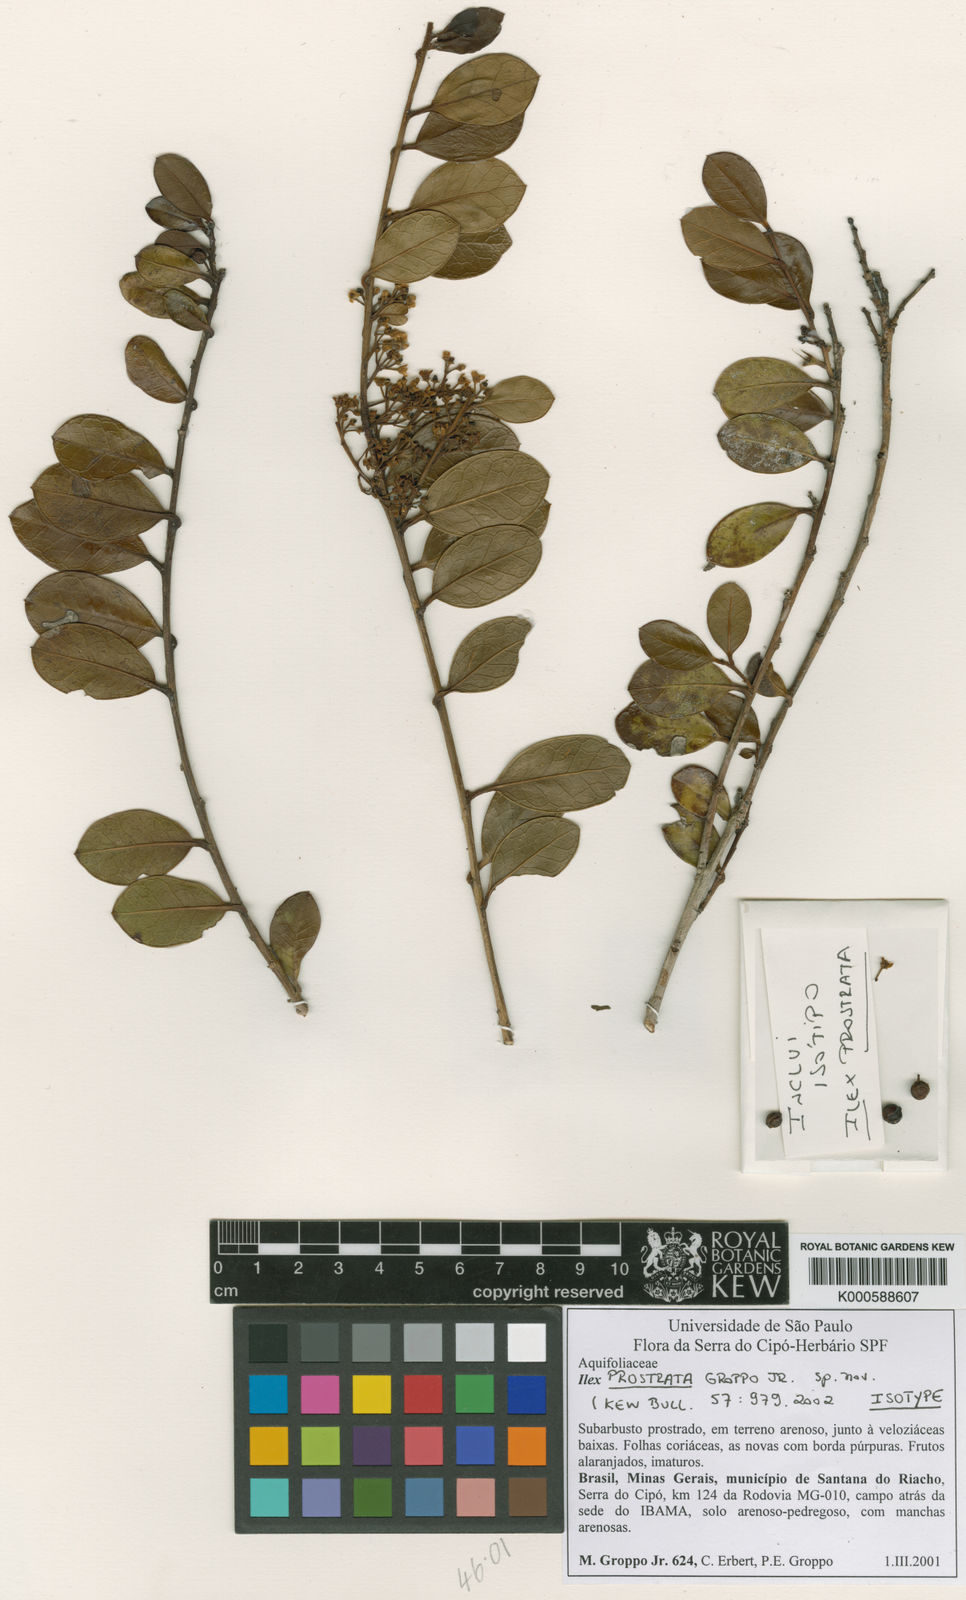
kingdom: Plantae
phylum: Tracheophyta
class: Magnoliopsida
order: Aquifoliales
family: Aquifoliaceae
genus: Ilex
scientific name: Ilex prostrata
